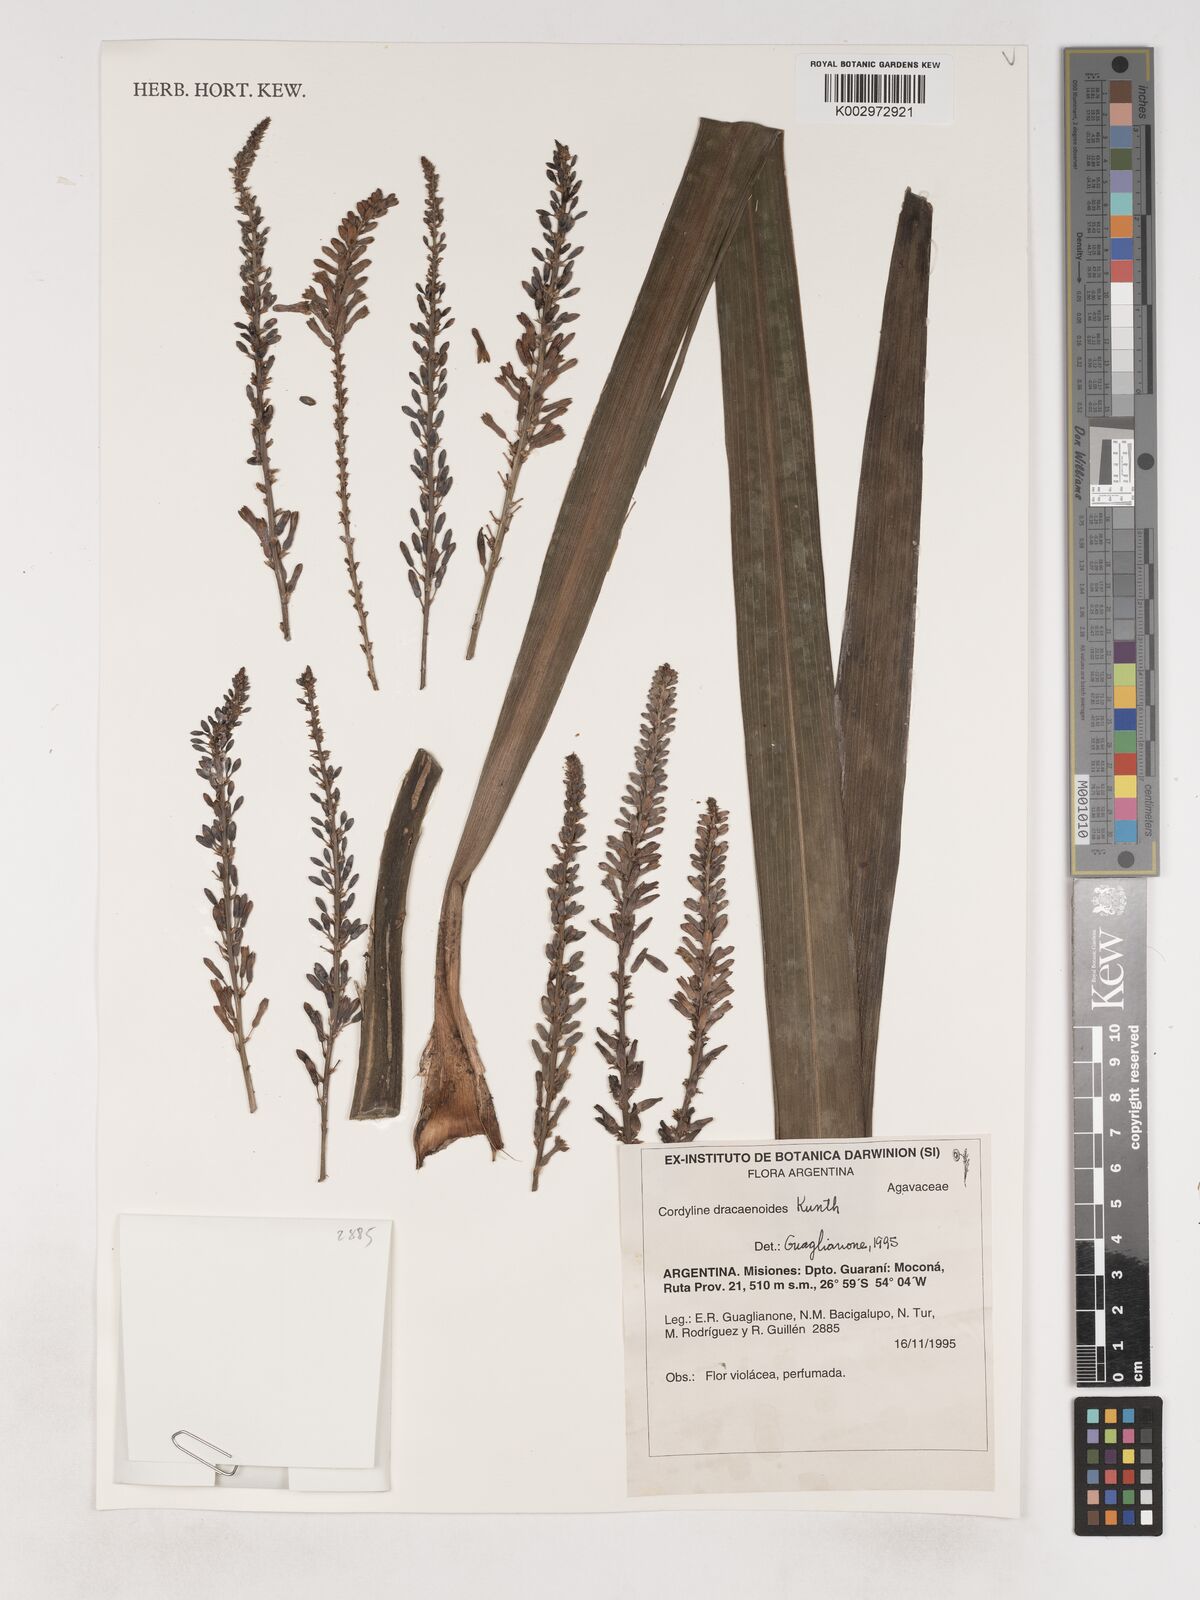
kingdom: Plantae
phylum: Tracheophyta
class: Liliopsida
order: Asparagales
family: Asparagaceae
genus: Cordyline
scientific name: Cordyline fruticosa
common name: Good-luck-plant
